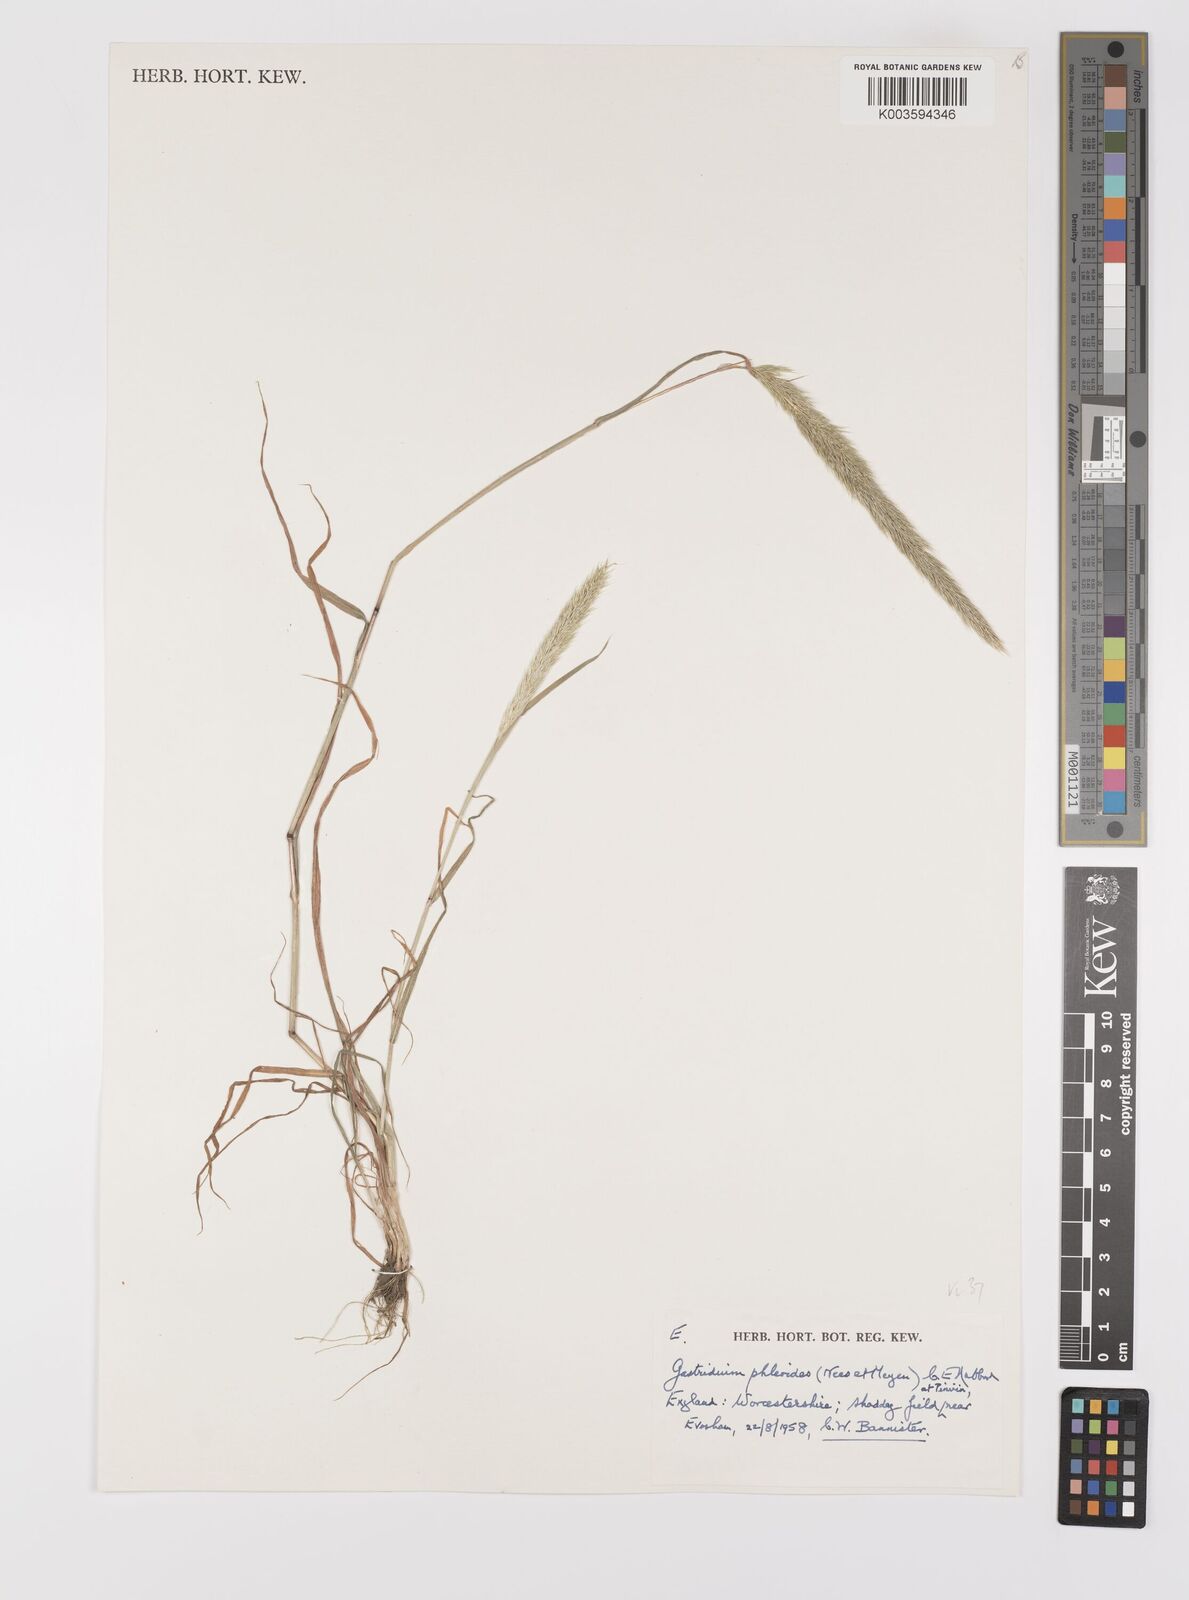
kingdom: Plantae
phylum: Tracheophyta
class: Liliopsida
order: Poales
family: Poaceae
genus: Gastridium
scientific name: Gastridium phleoides
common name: Nit grass
